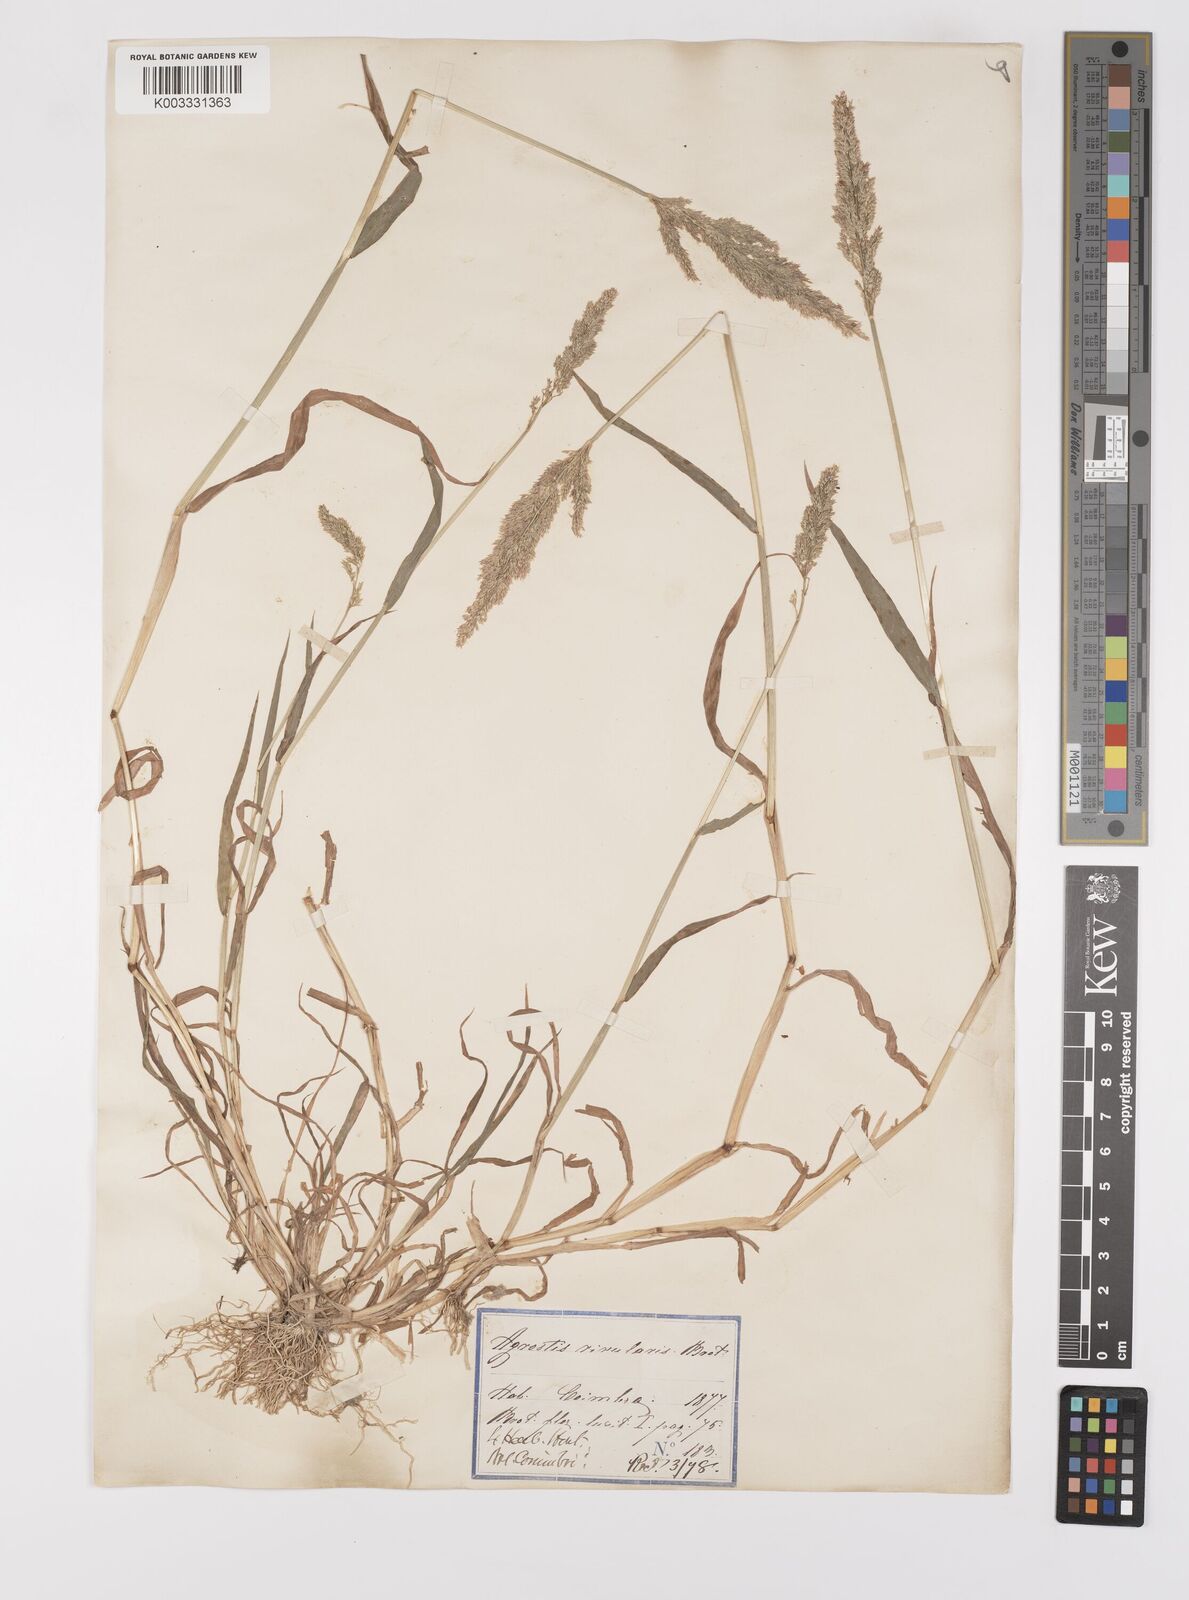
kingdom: Plantae
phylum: Tracheophyta
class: Liliopsida
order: Poales
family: Poaceae
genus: Polypogon
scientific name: Polypogon viridis
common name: Water bent
